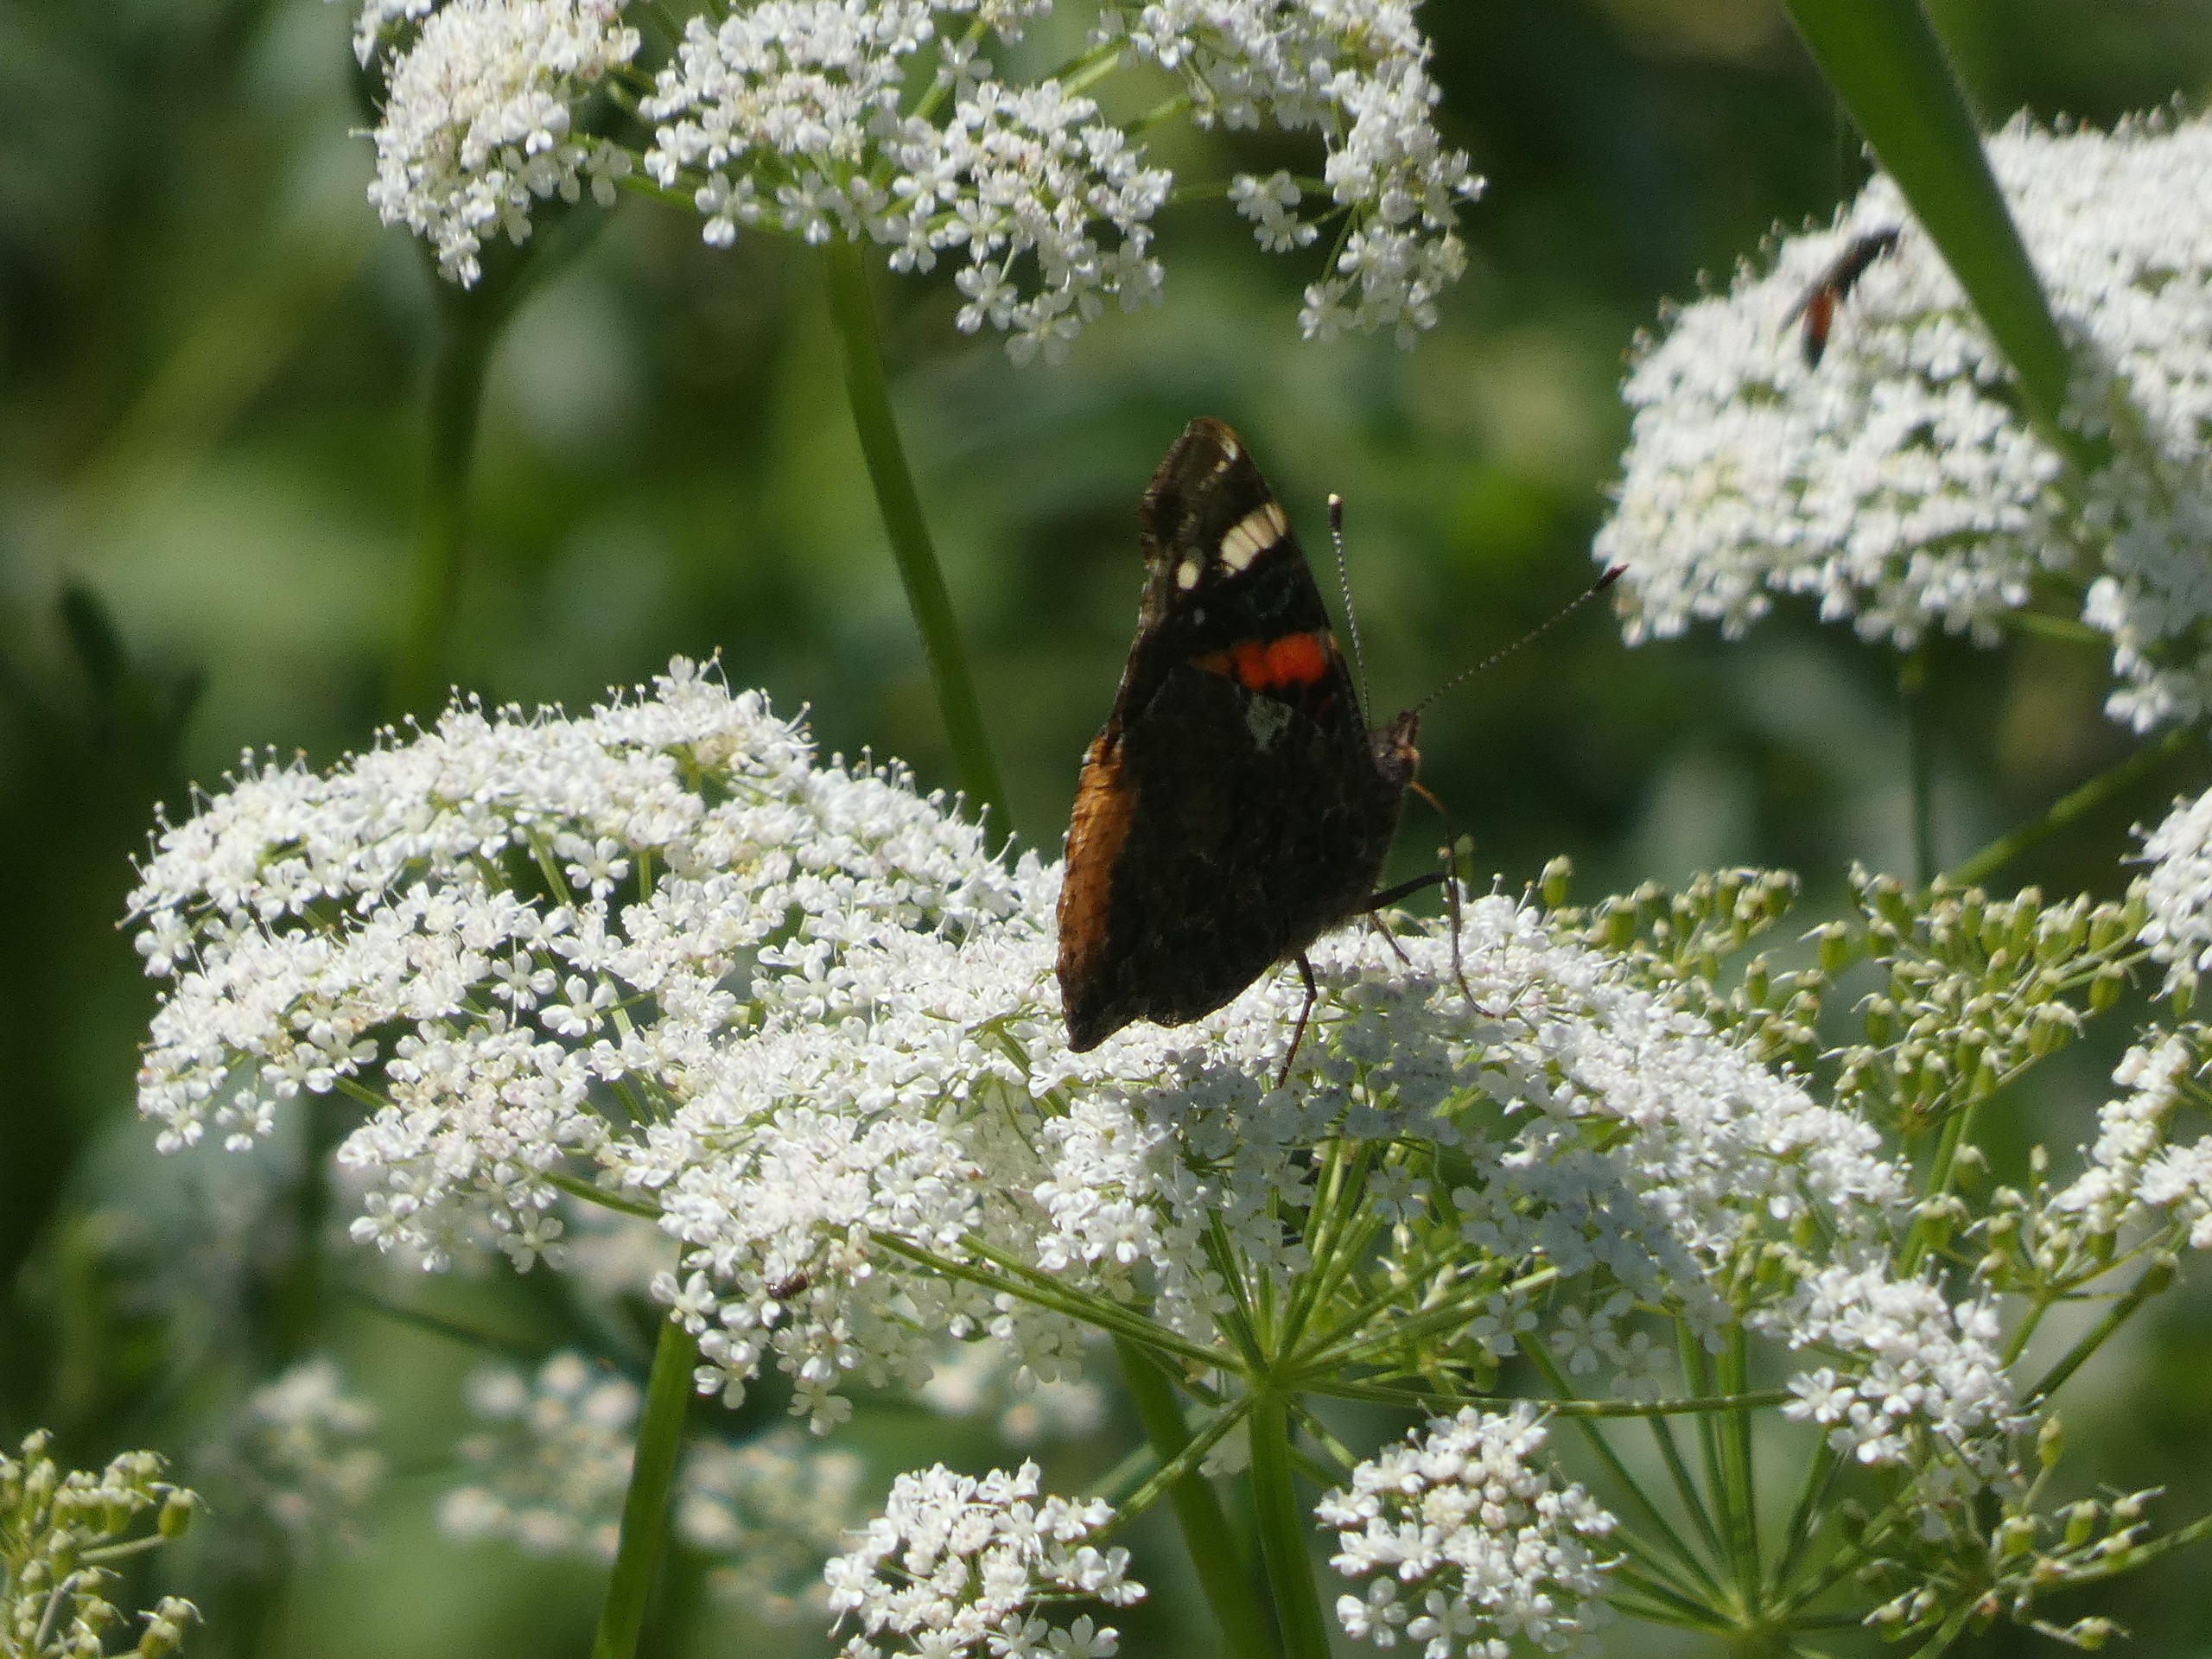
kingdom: Animalia
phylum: Arthropoda
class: Insecta
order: Lepidoptera
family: Nymphalidae
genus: Vanessa
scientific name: Vanessa atalanta
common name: Admiral
